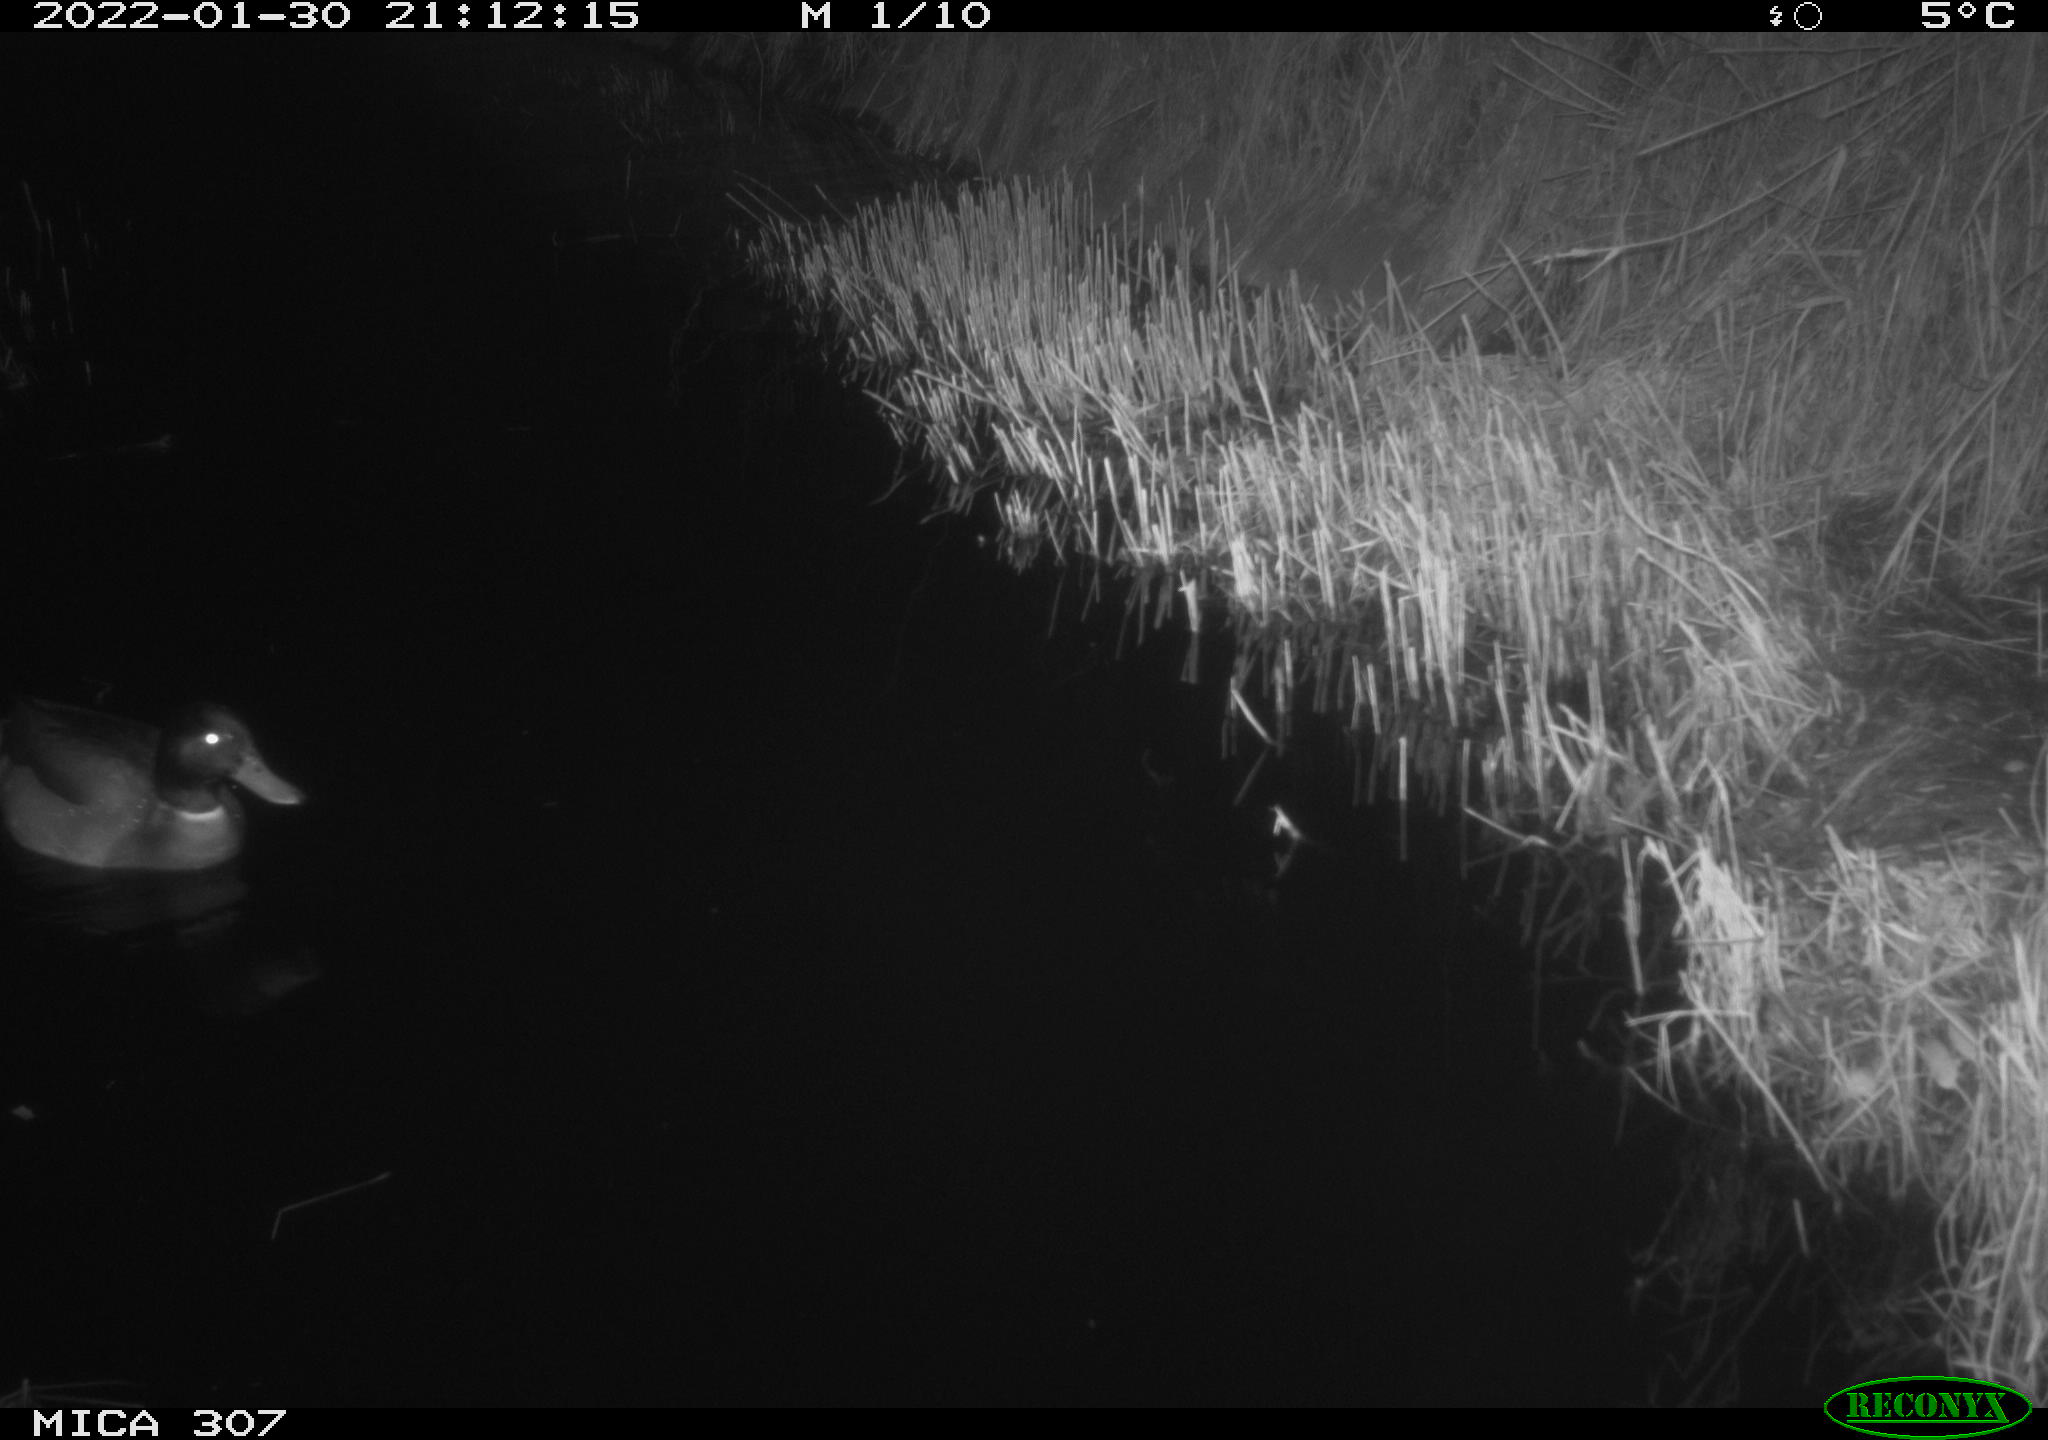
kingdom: Animalia
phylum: Chordata
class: Aves
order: Anseriformes
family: Anatidae
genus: Anas
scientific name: Anas
